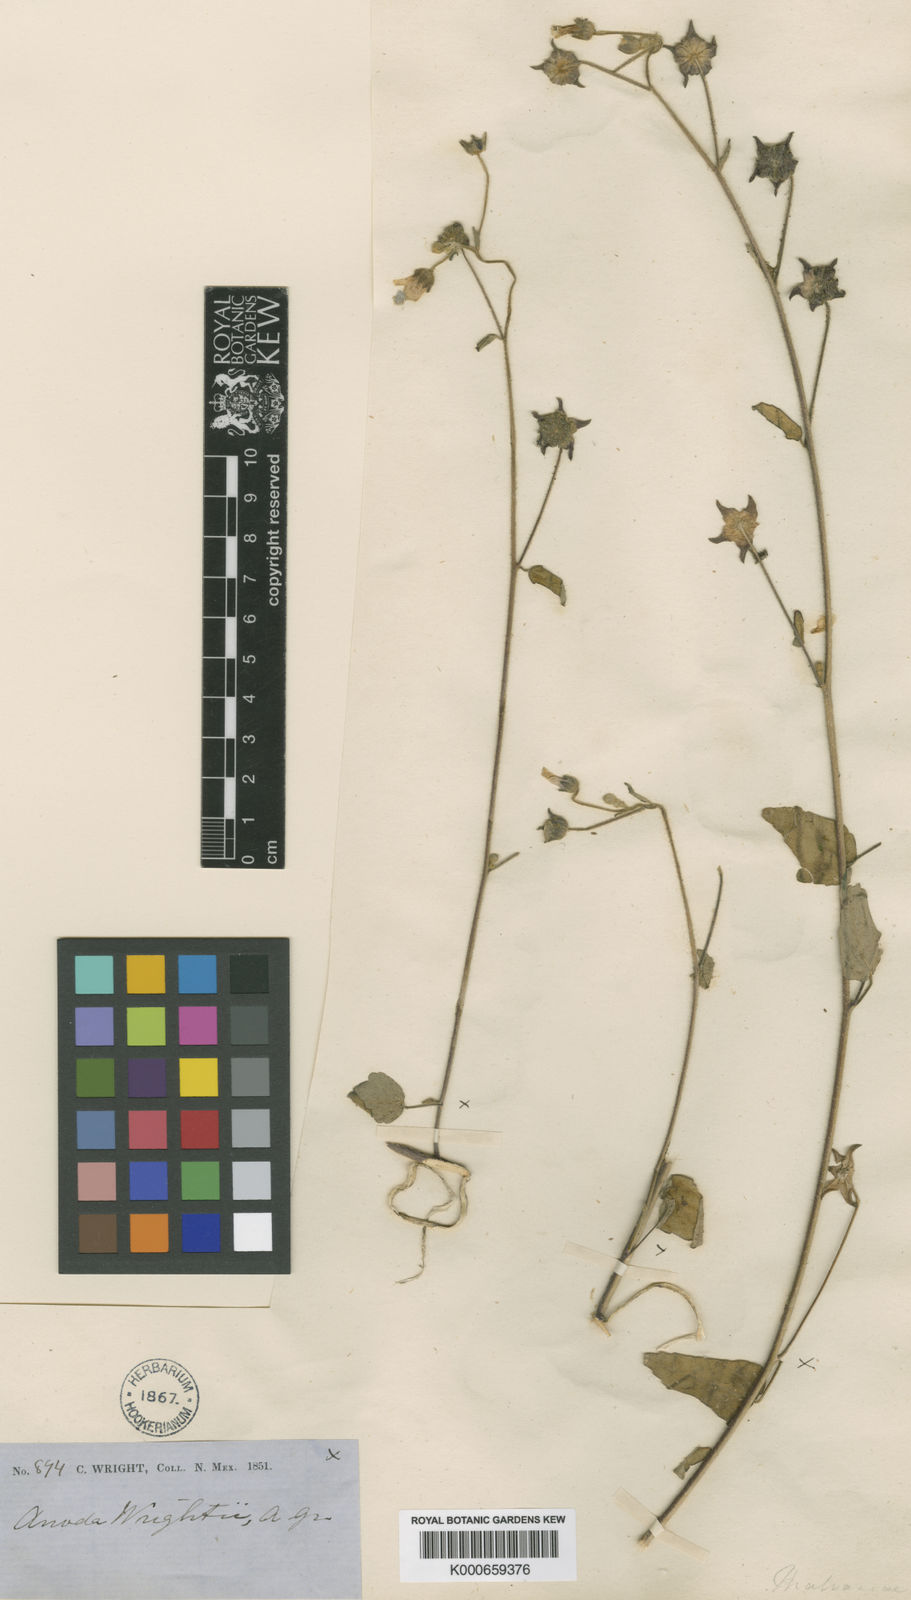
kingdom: Plantae
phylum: Tracheophyta
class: Magnoliopsida
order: Malvales
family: Malvaceae
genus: Anoda
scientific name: Anoda lanceolata
